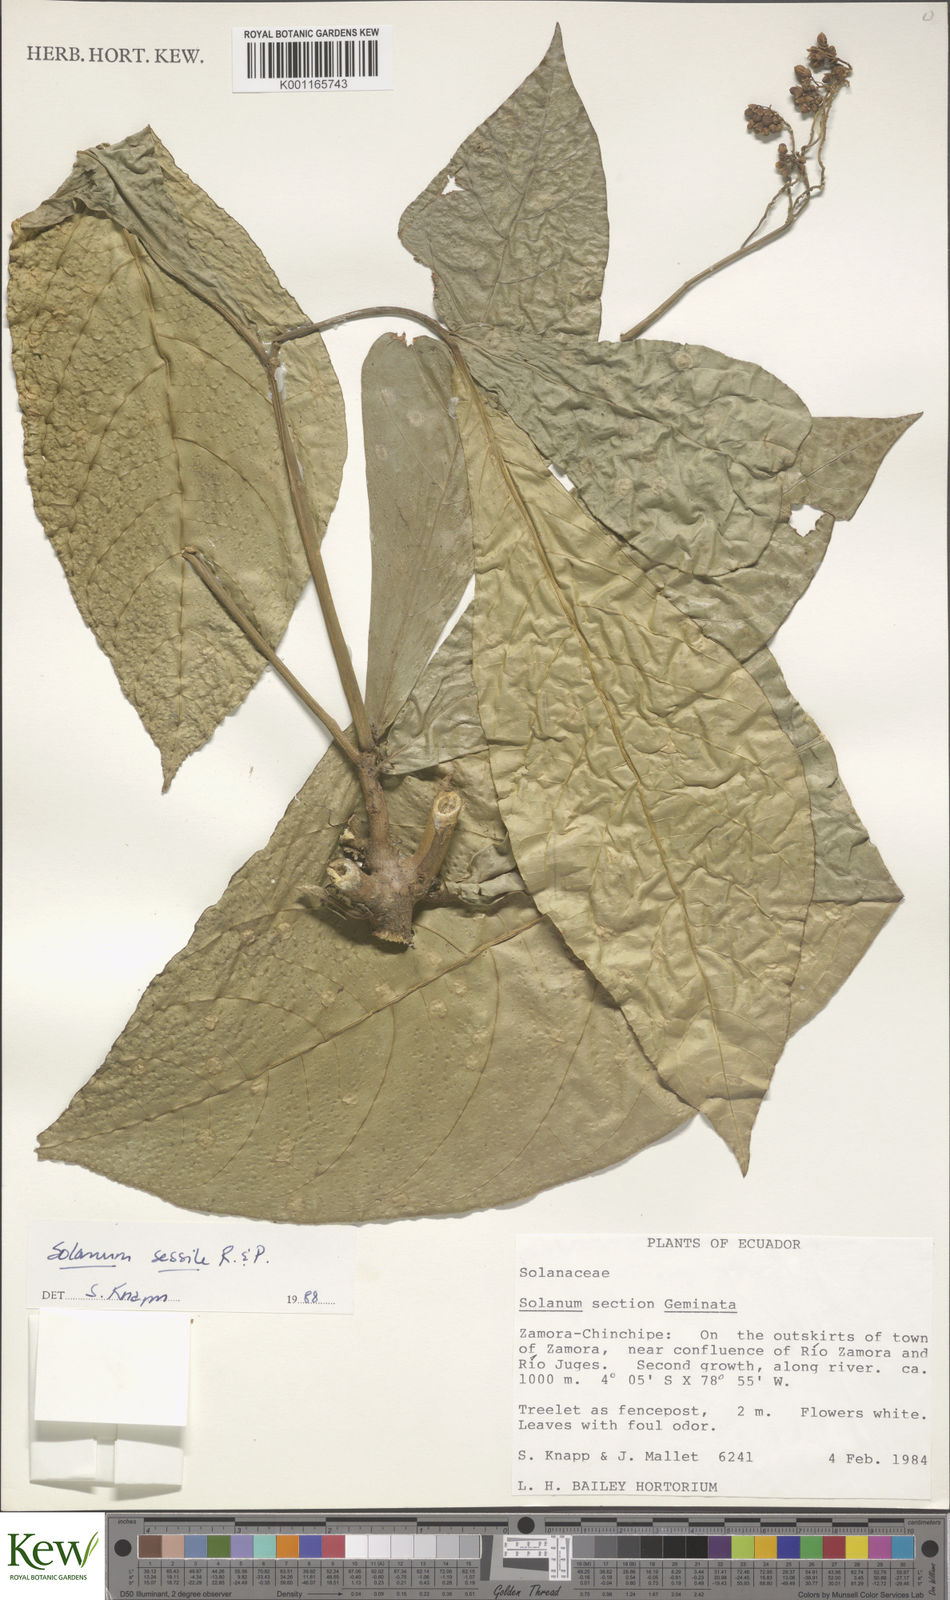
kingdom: Plantae
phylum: Tracheophyta
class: Magnoliopsida
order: Solanales
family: Solanaceae
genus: Solanum
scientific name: Solanum sessile
